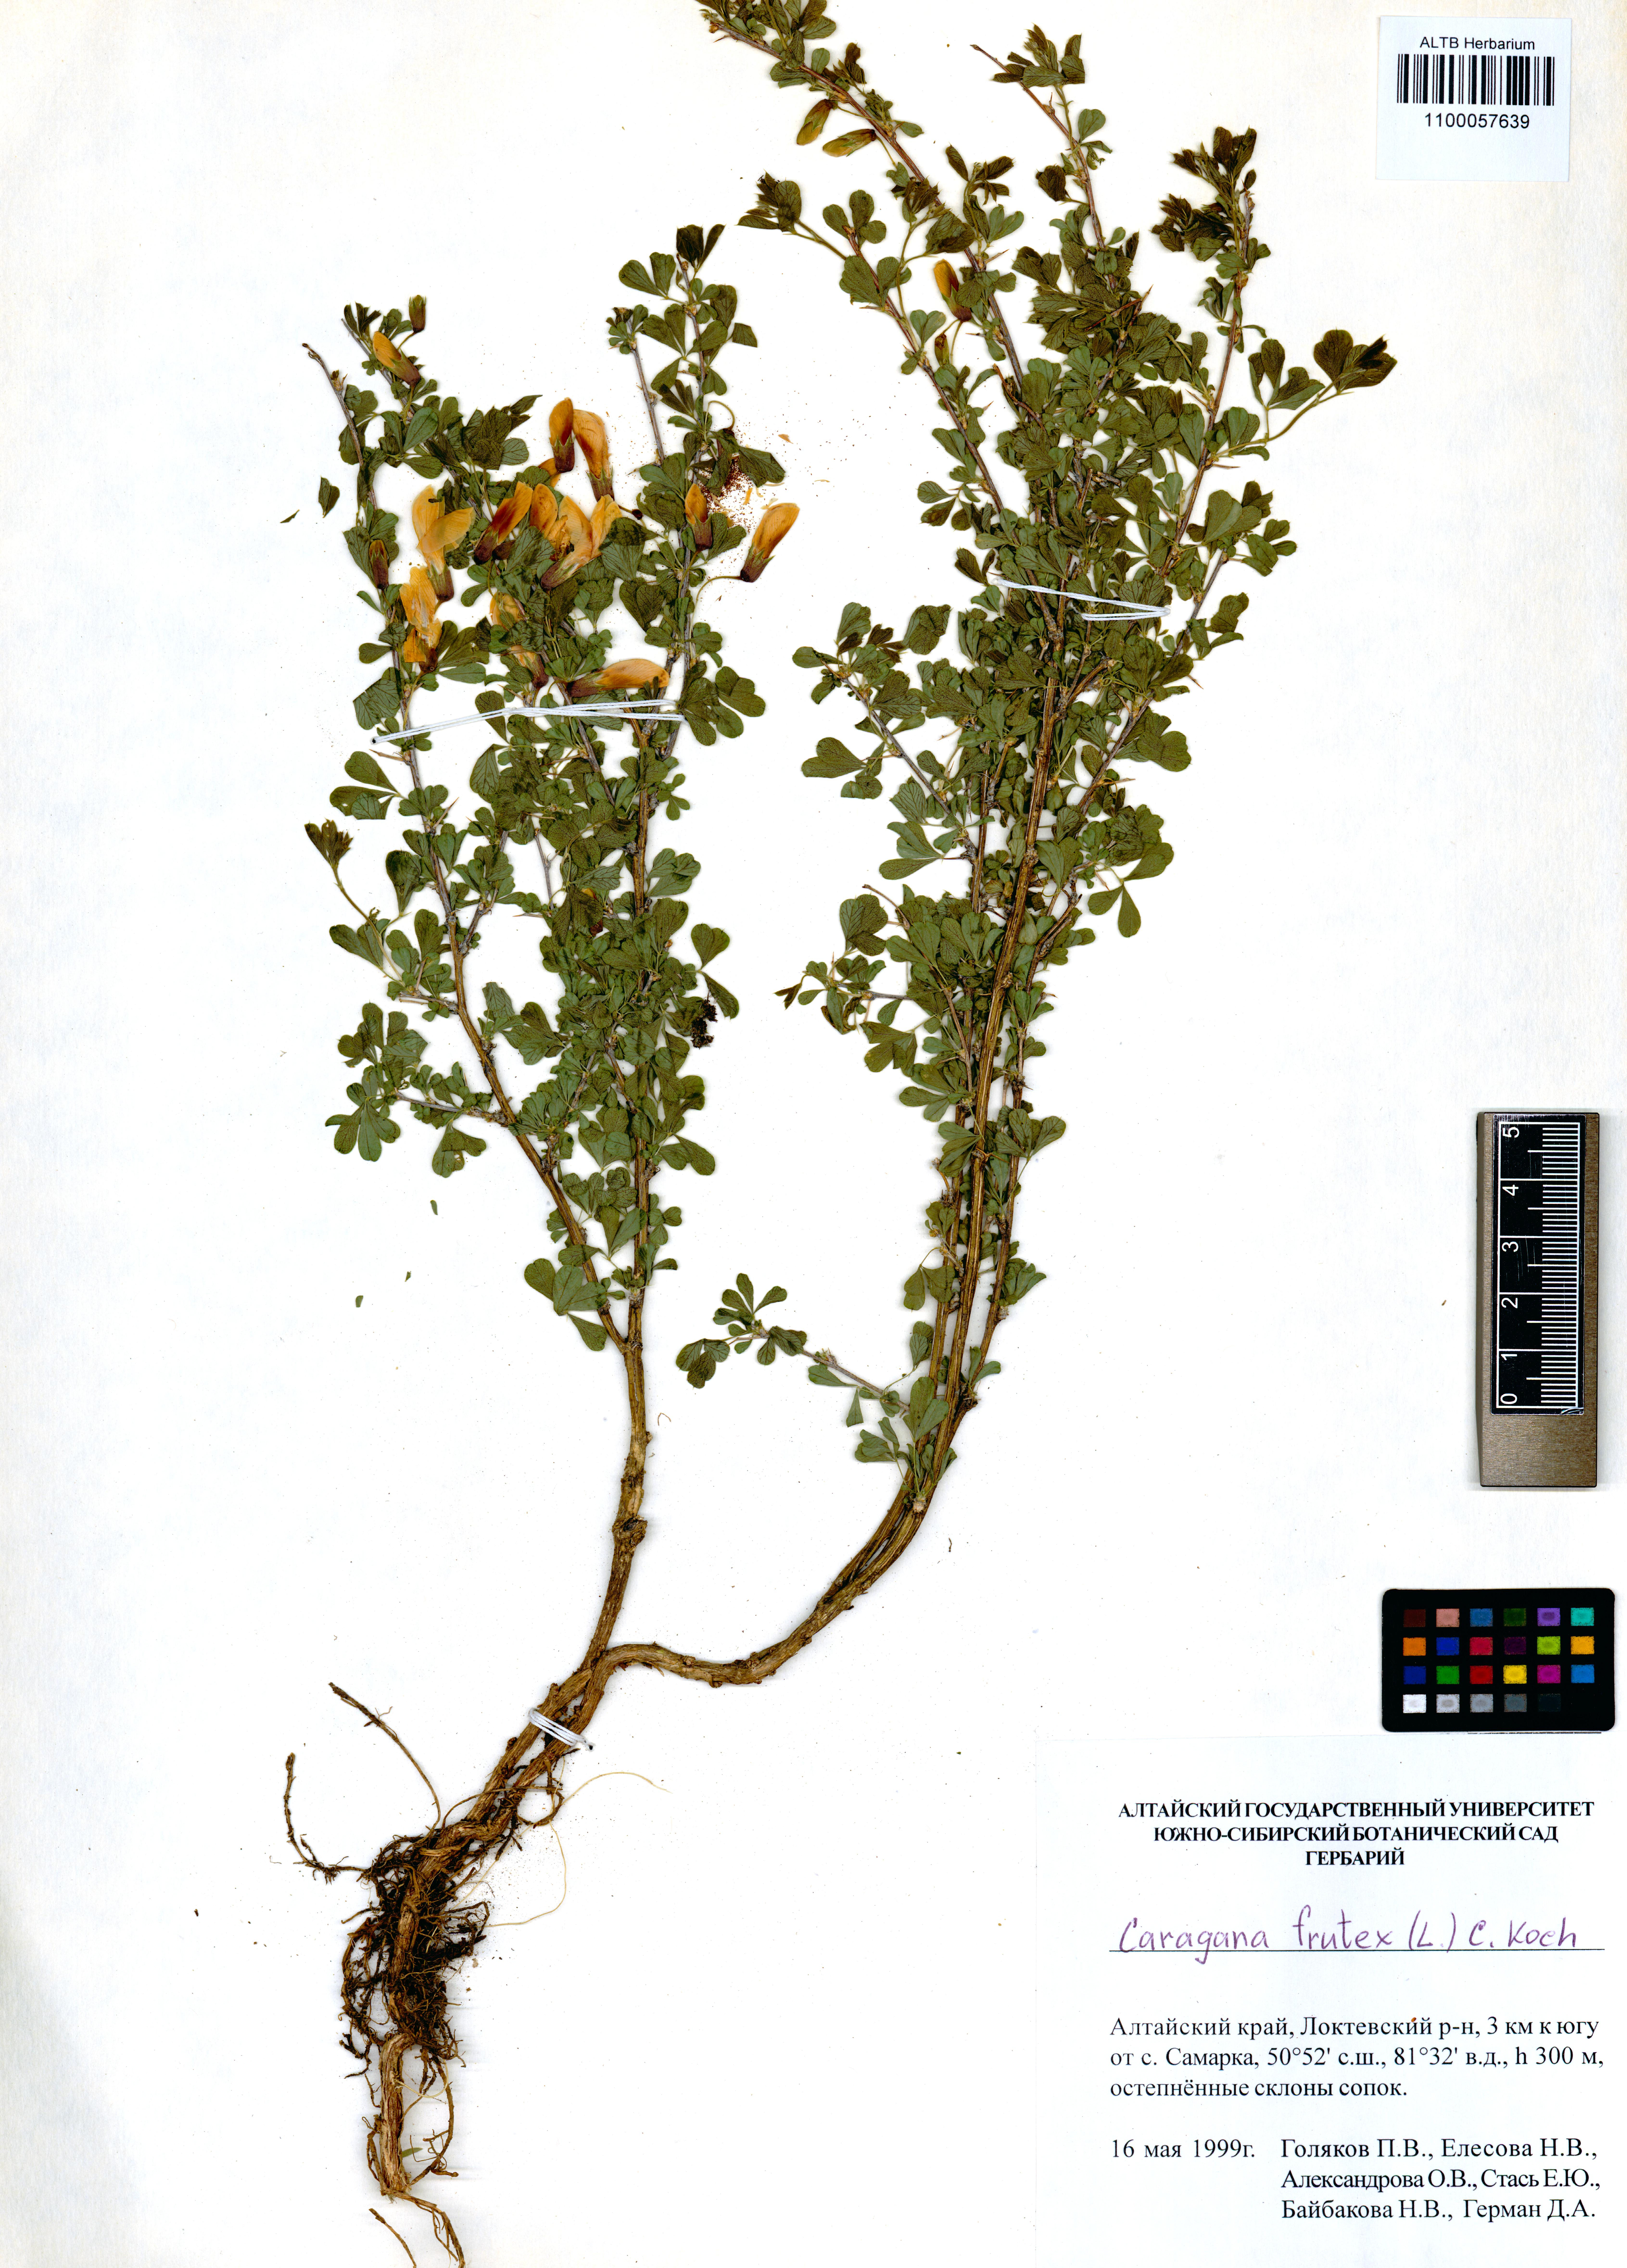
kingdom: Plantae
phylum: Tracheophyta
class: Magnoliopsida
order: Fabales
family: Fabaceae
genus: Caragana
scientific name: Caragana frutex
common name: Russian peashrub
